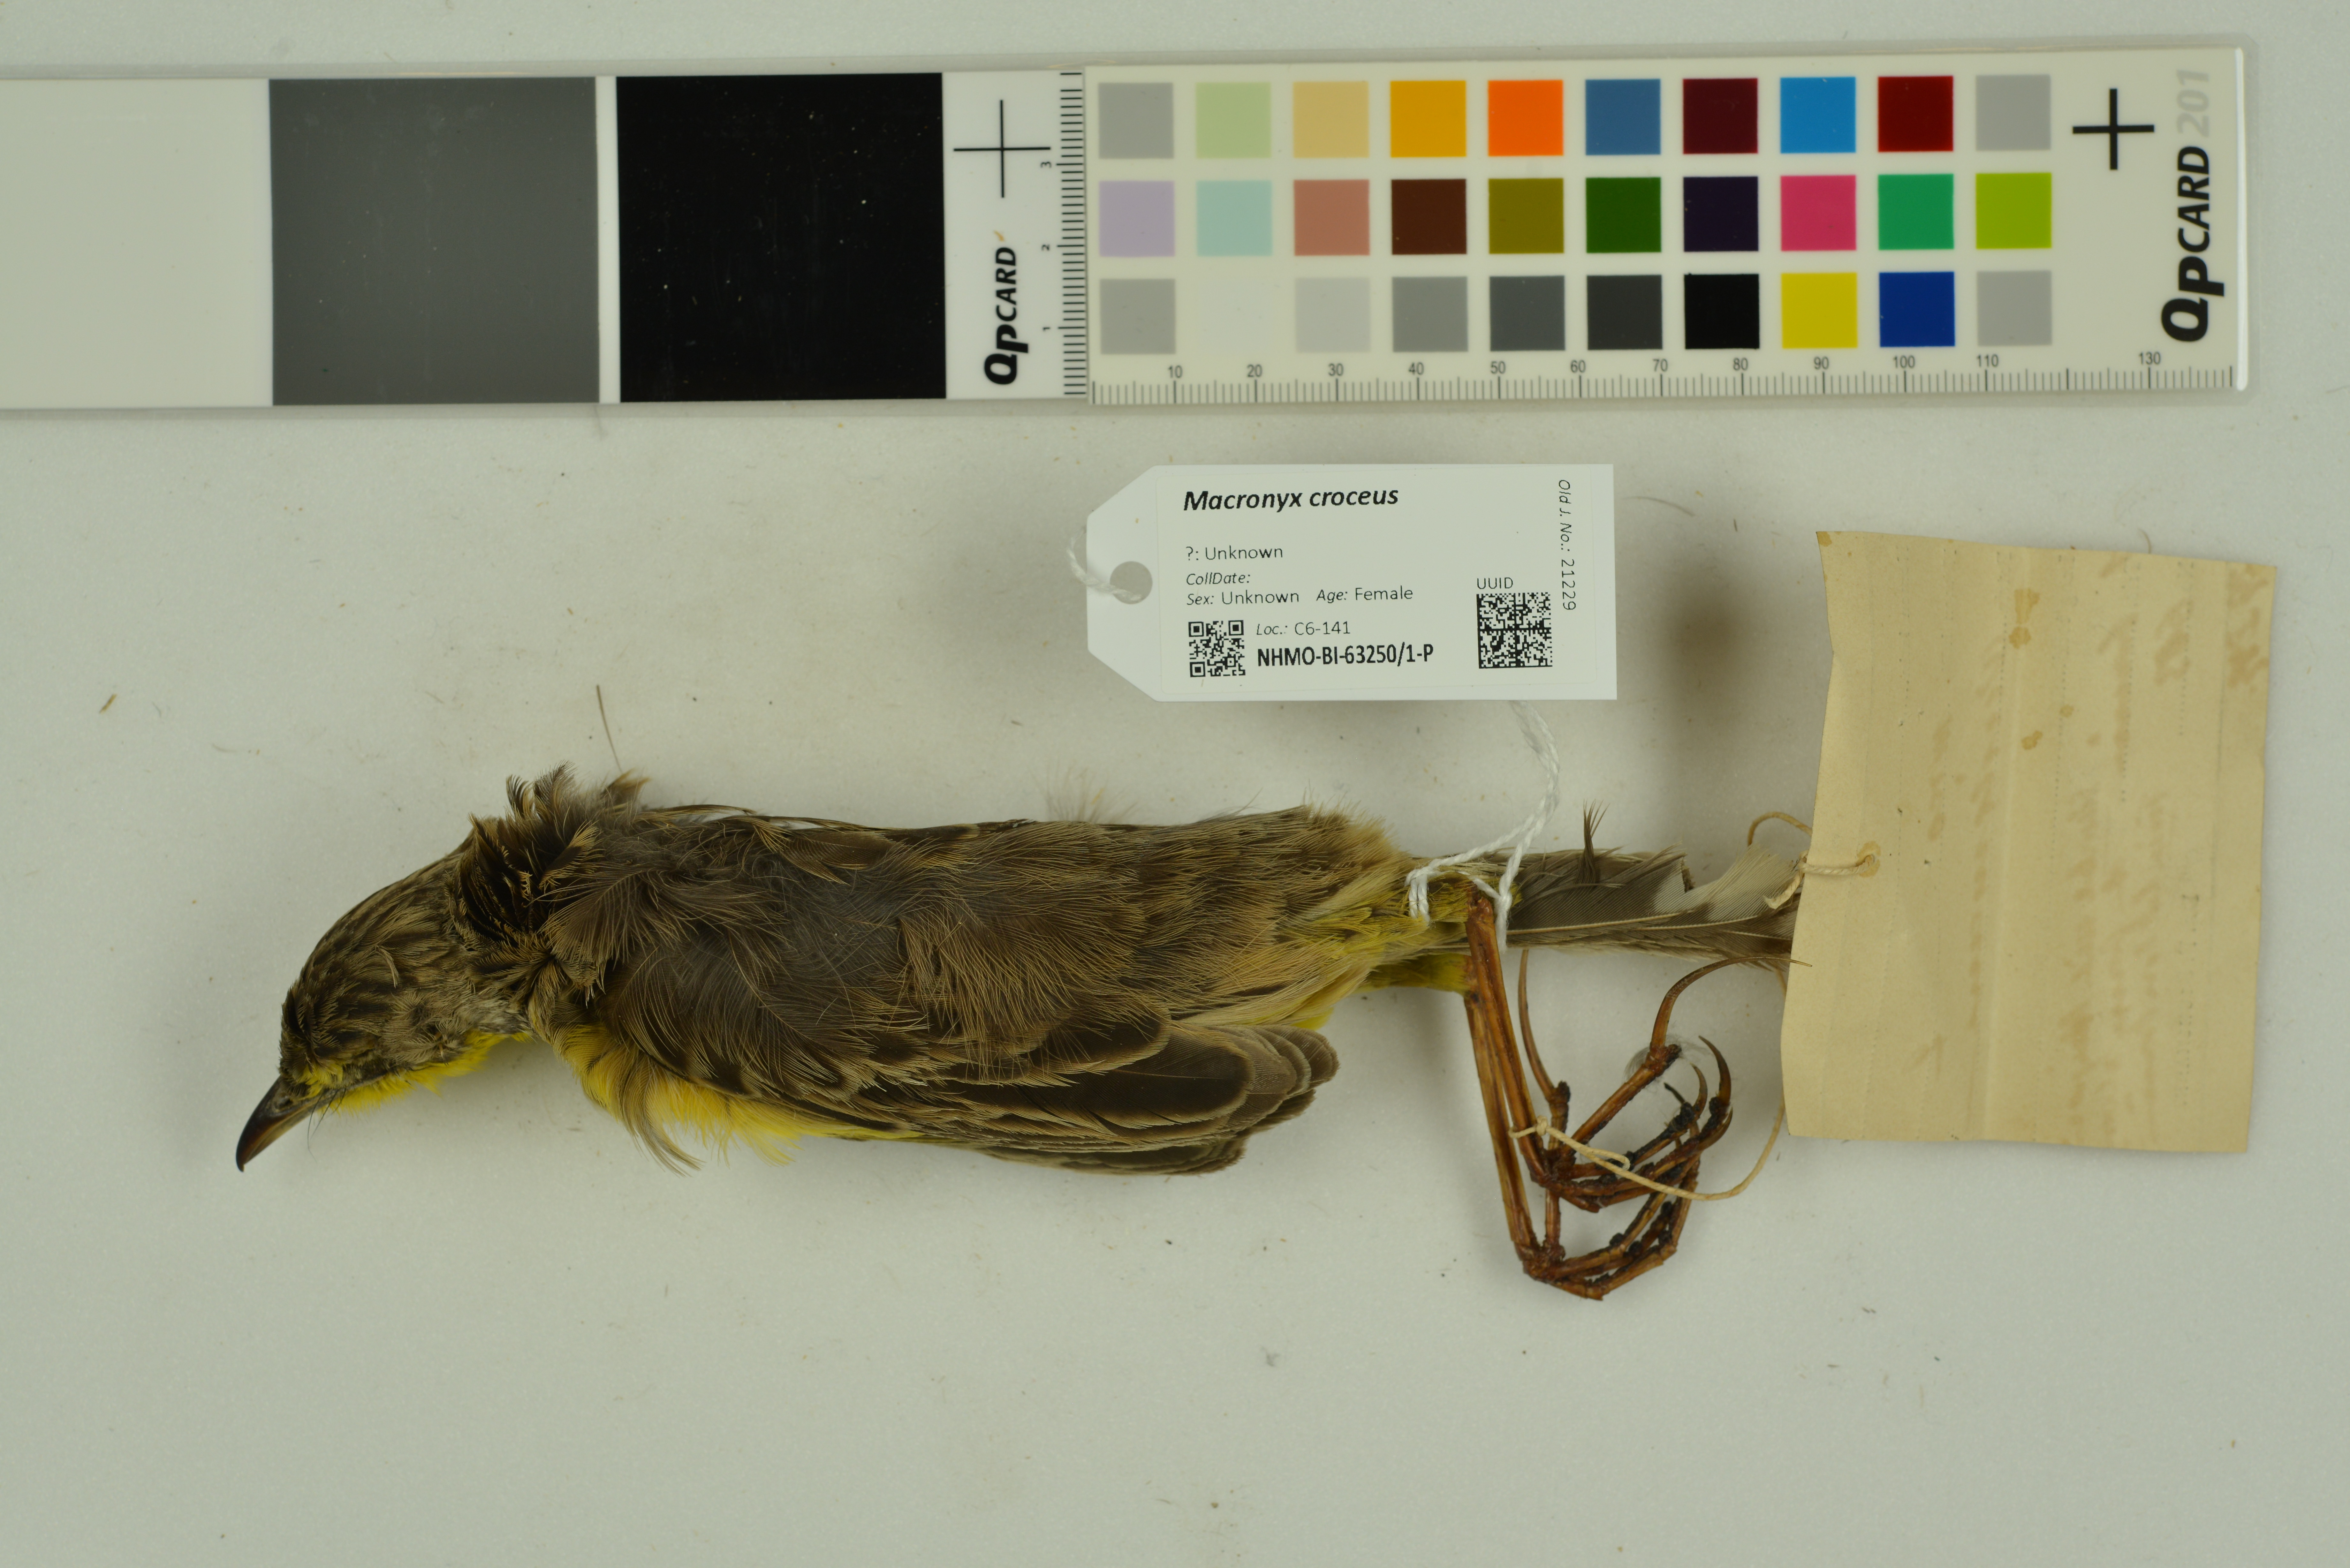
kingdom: Animalia
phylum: Chordata
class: Aves
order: Passeriformes
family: Motacillidae
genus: Macronyx
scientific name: Macronyx croceus
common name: Yellow-throated longclaw
